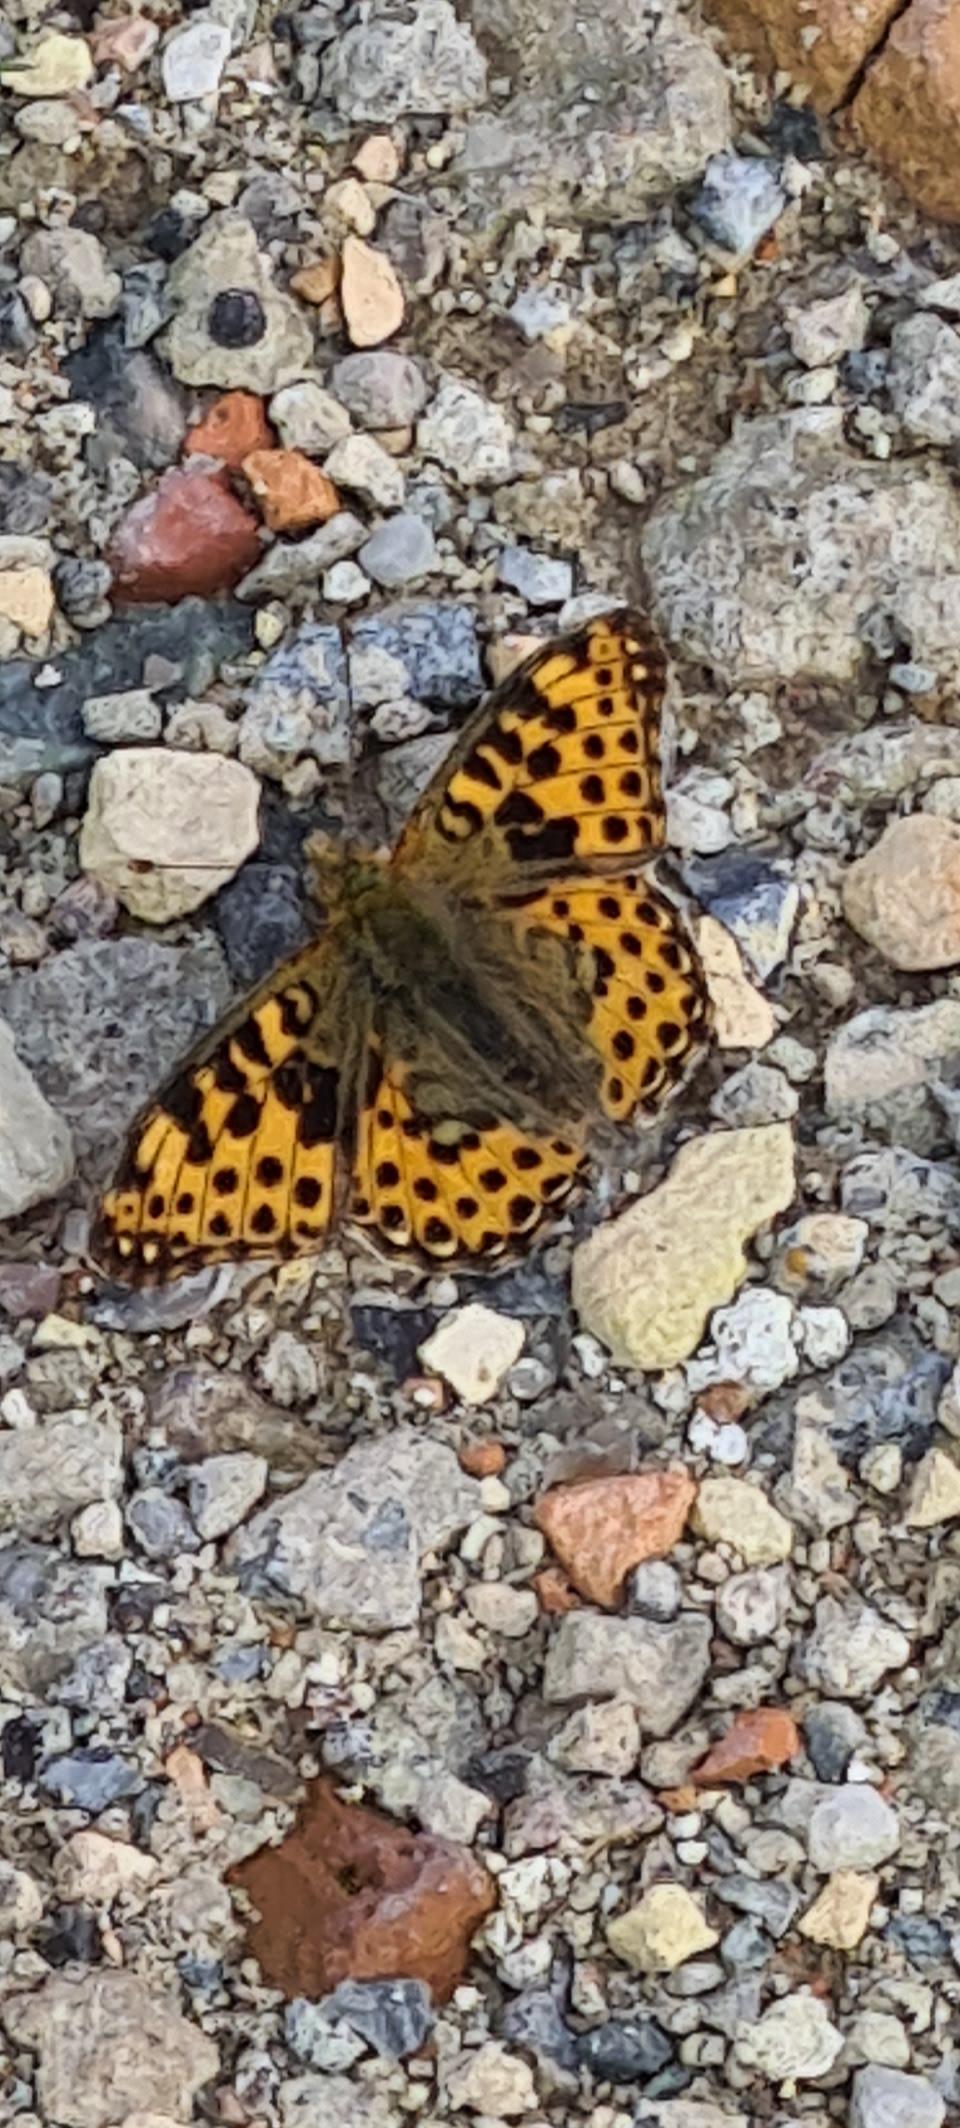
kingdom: Animalia
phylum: Arthropoda
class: Insecta
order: Lepidoptera
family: Nymphalidae
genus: Issoria
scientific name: Issoria lathonia
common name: Storplettet perlemorsommerfugl
